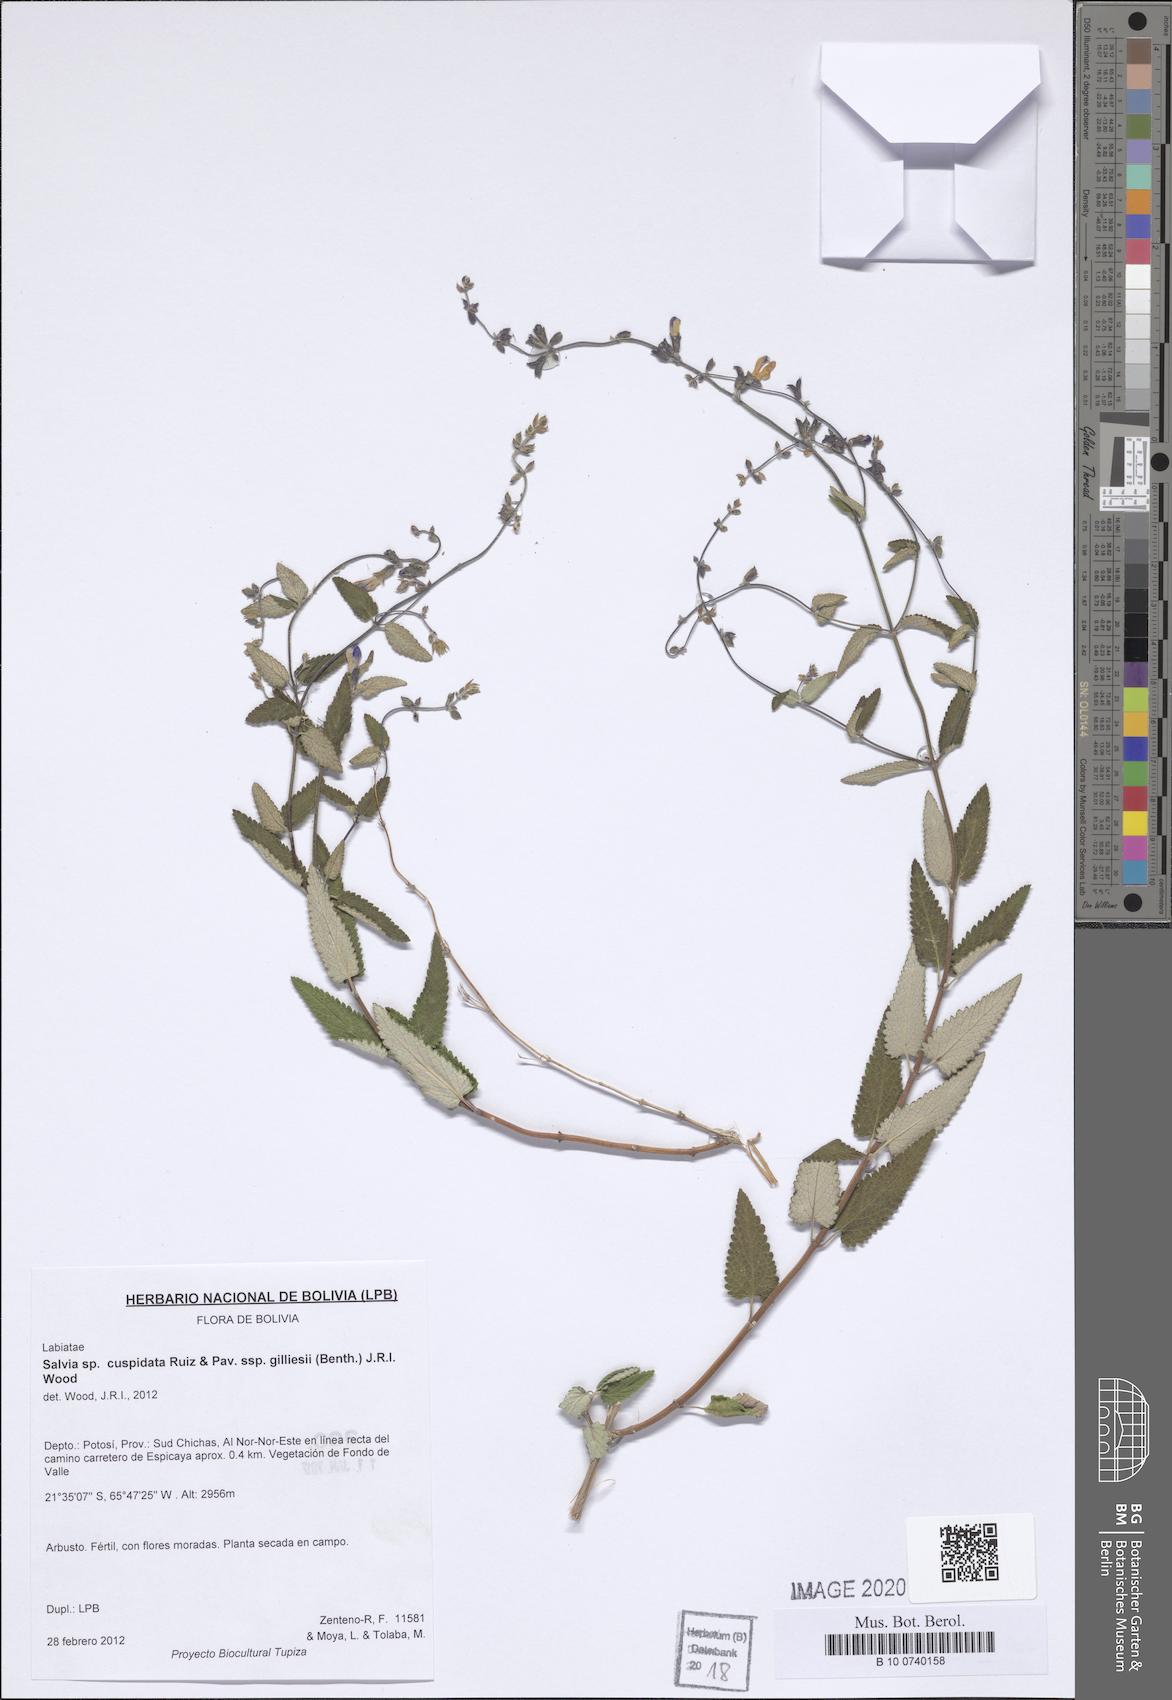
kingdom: Plantae
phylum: Tracheophyta
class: Magnoliopsida
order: Lamiales
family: Lamiaceae
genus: Salvia
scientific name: Salvia cuspidata
